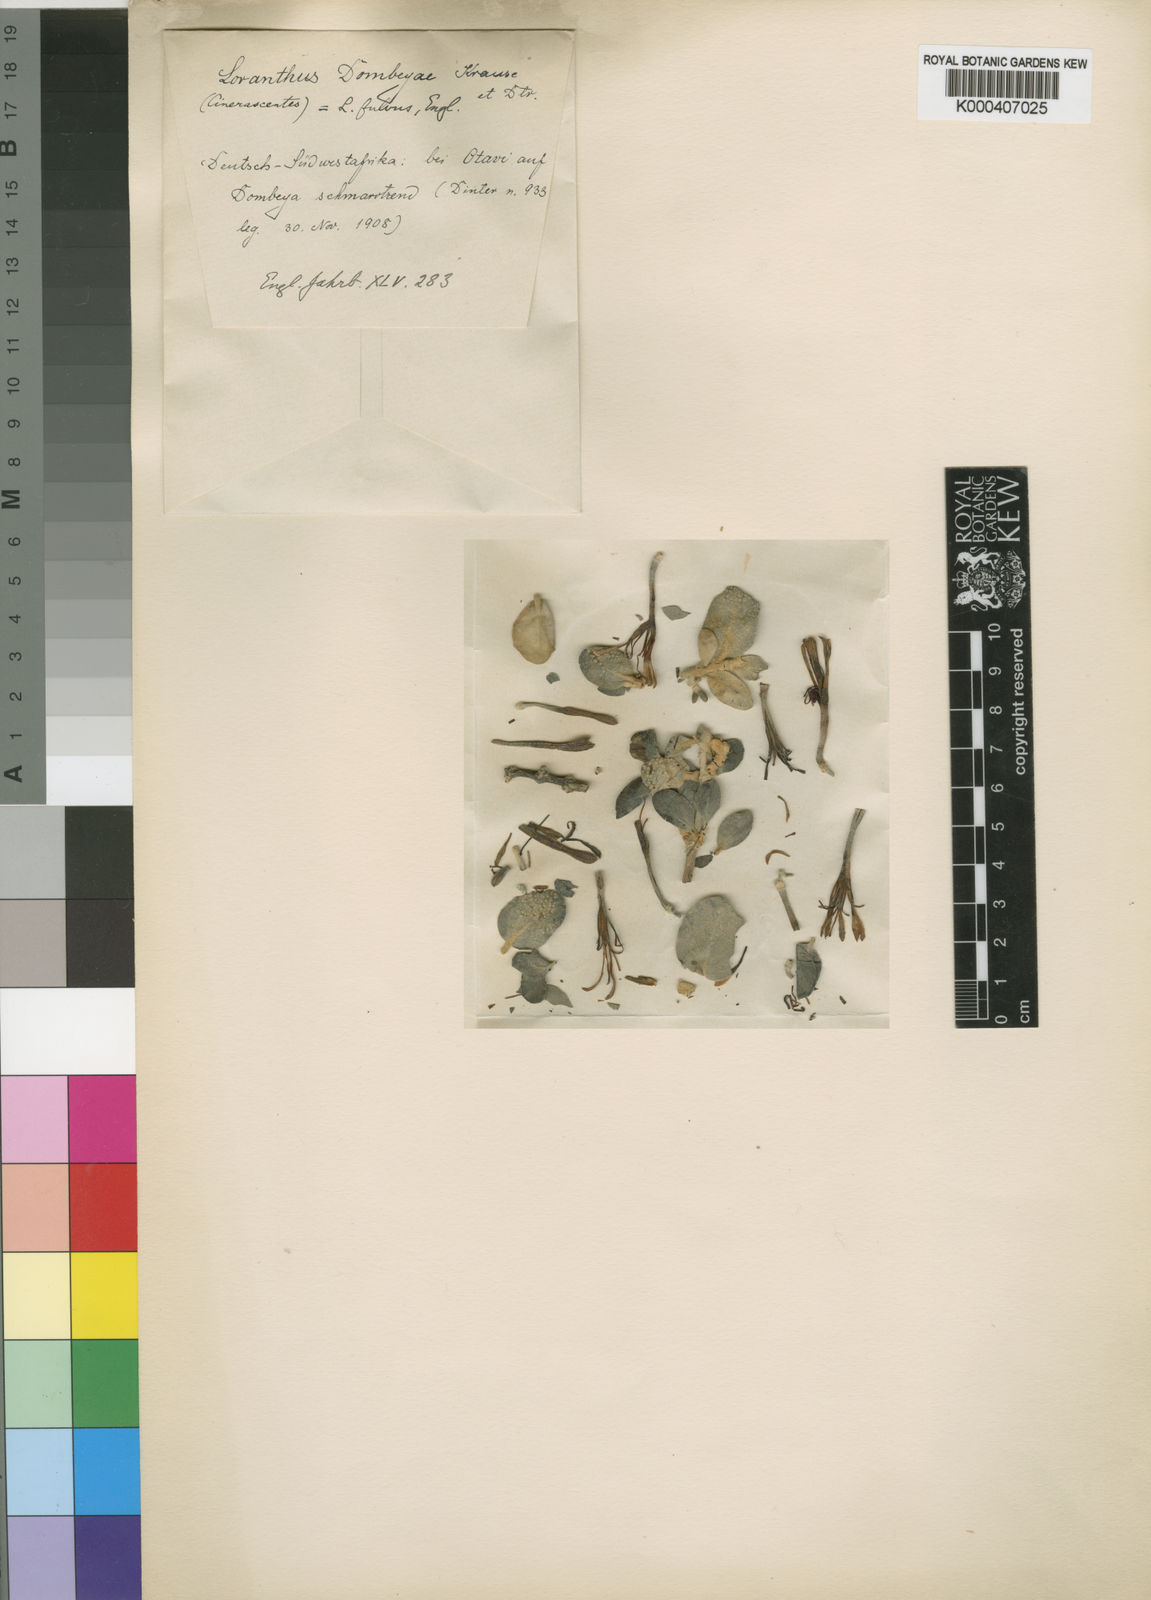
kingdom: Plantae
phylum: Tracheophyta
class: Magnoliopsida
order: Santalales
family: Loranthaceae
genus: Phragmanthera
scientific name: Phragmanthera dombeyae
